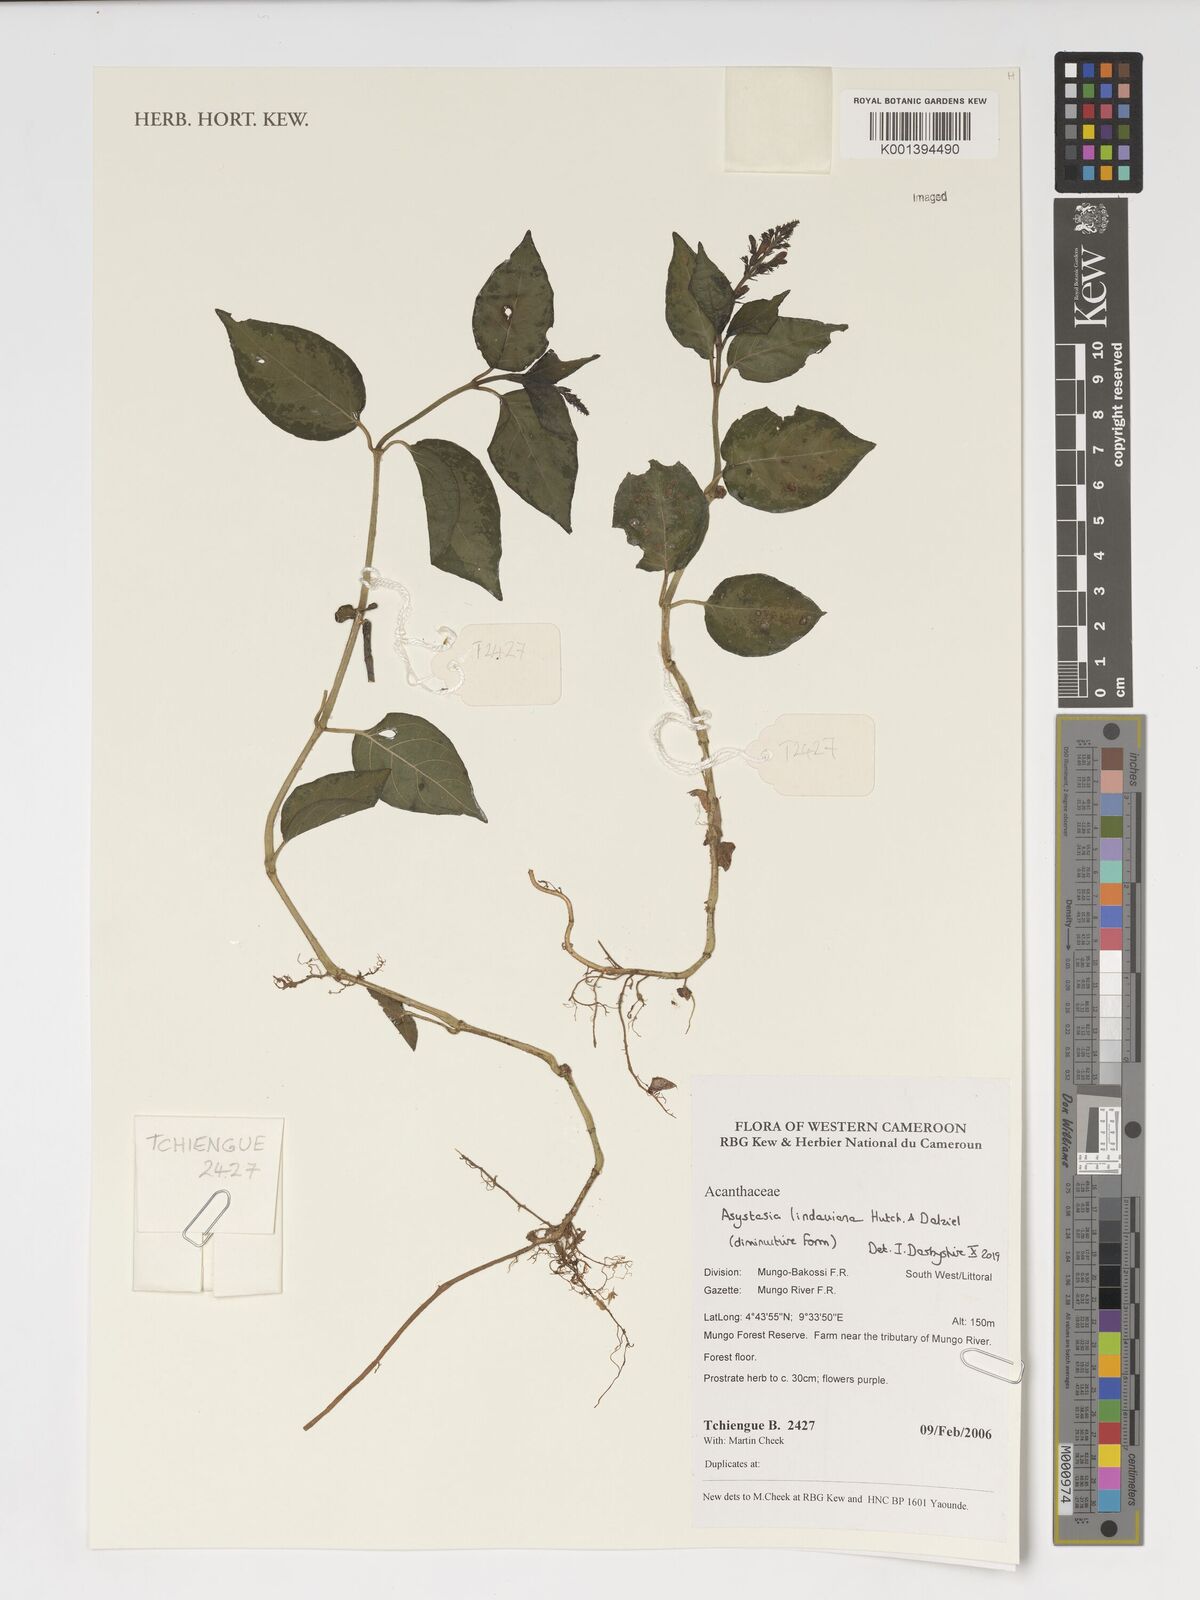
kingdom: Plantae
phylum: Tracheophyta
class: Magnoliopsida
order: Lamiales
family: Acanthaceae
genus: Asystasia
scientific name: Asystasia lindauiana
